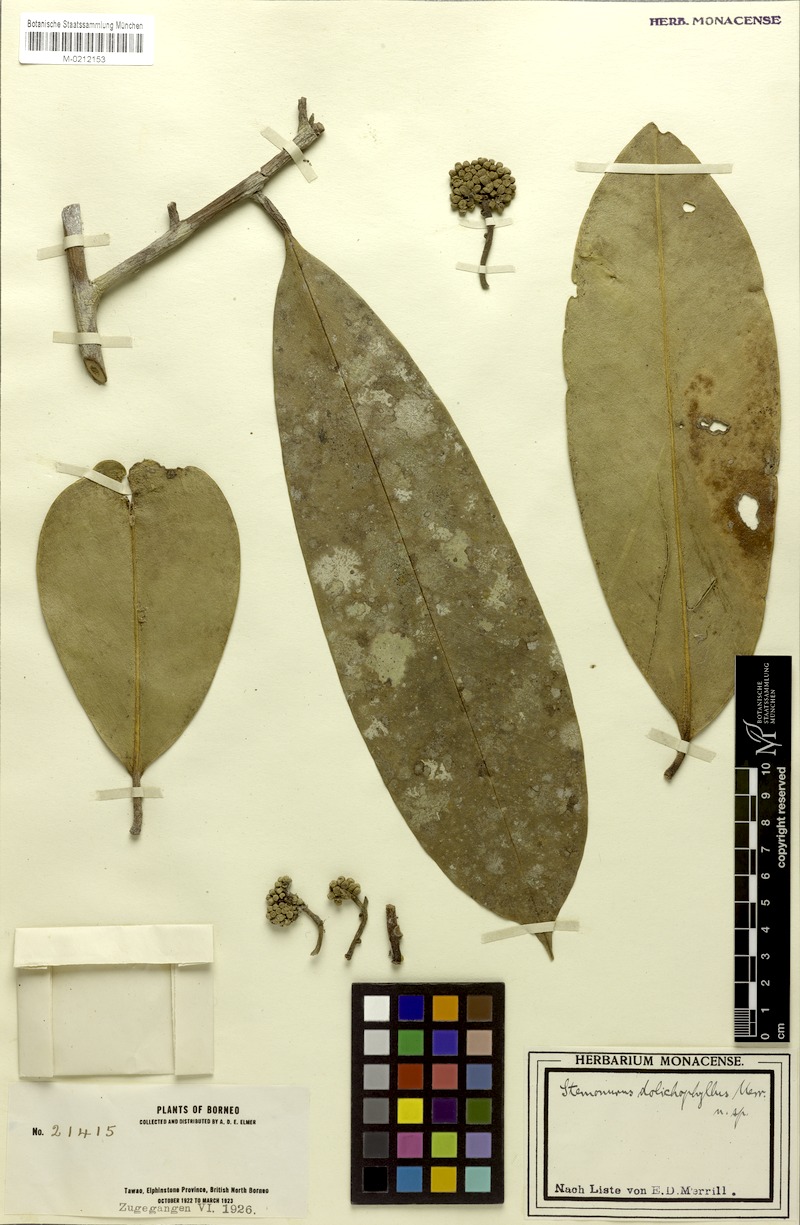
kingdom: Plantae
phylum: Tracheophyta
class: Magnoliopsida
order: Cardiopteridales
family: Stemonuraceae
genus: Stemonurus
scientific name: Stemonurus grandifolius
